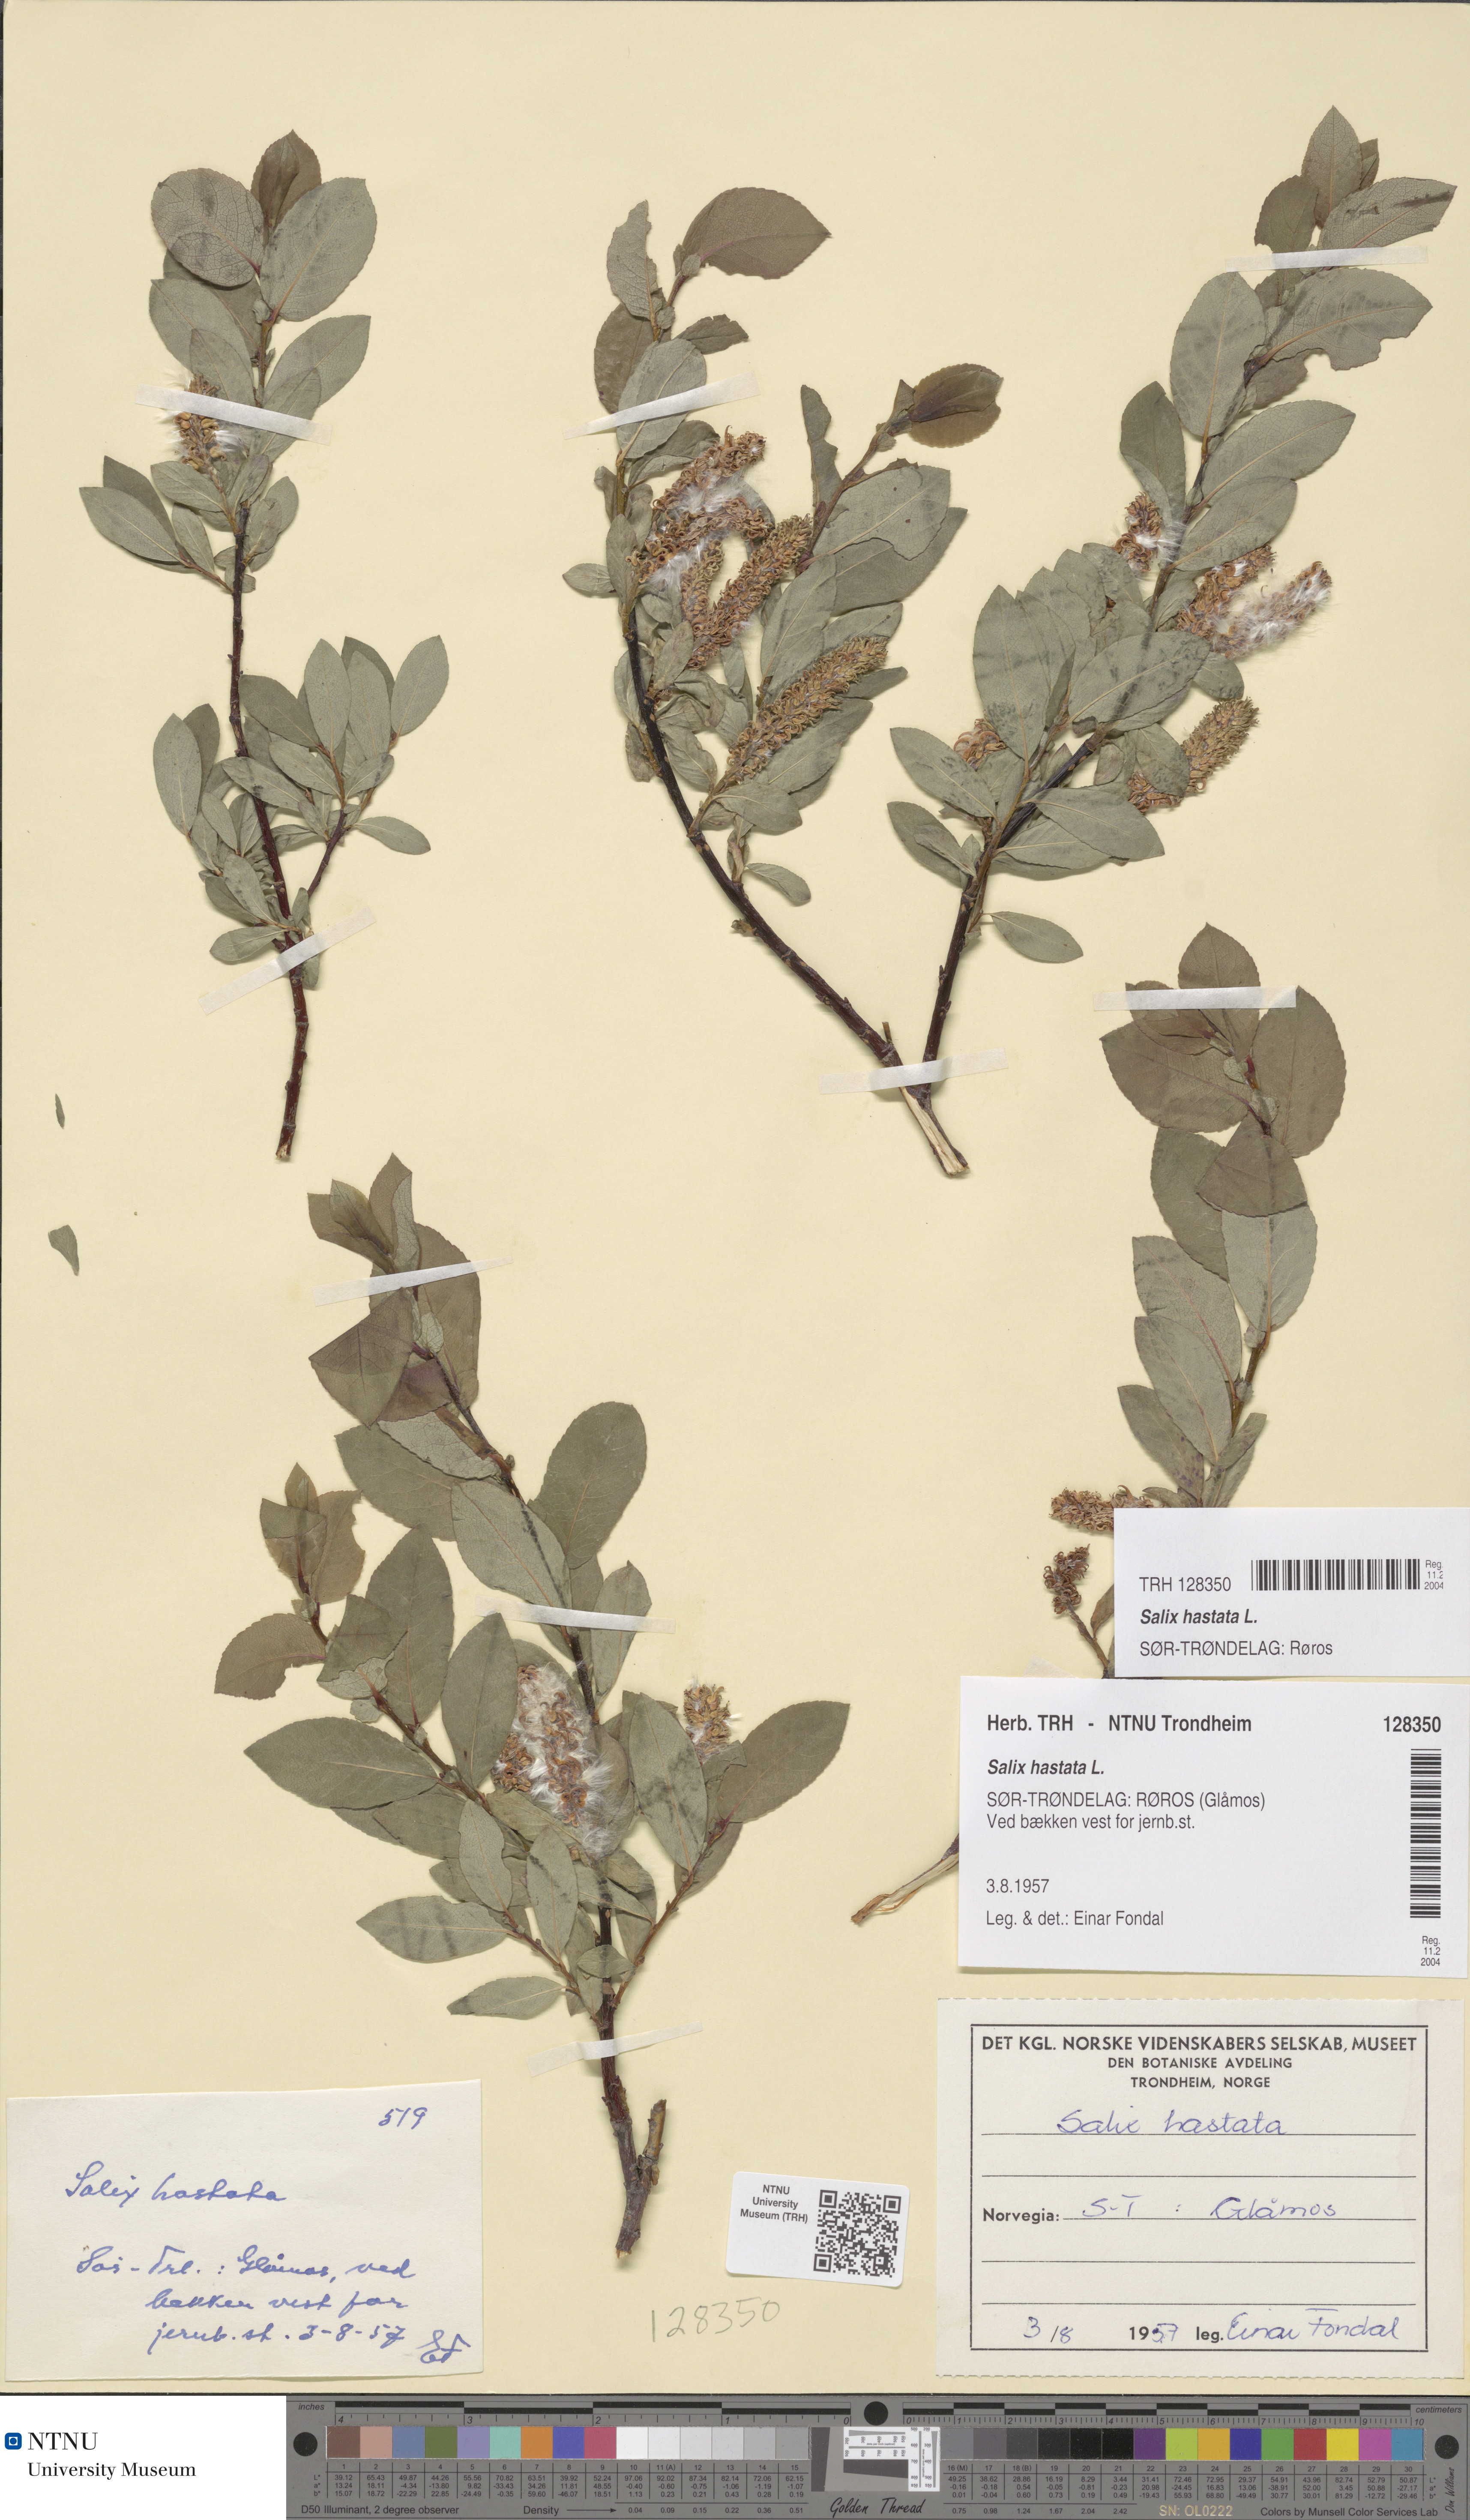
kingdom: Plantae
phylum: Tracheophyta
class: Magnoliopsida
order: Malpighiales
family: Salicaceae
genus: Salix
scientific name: Salix hastata
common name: Halberd willow
